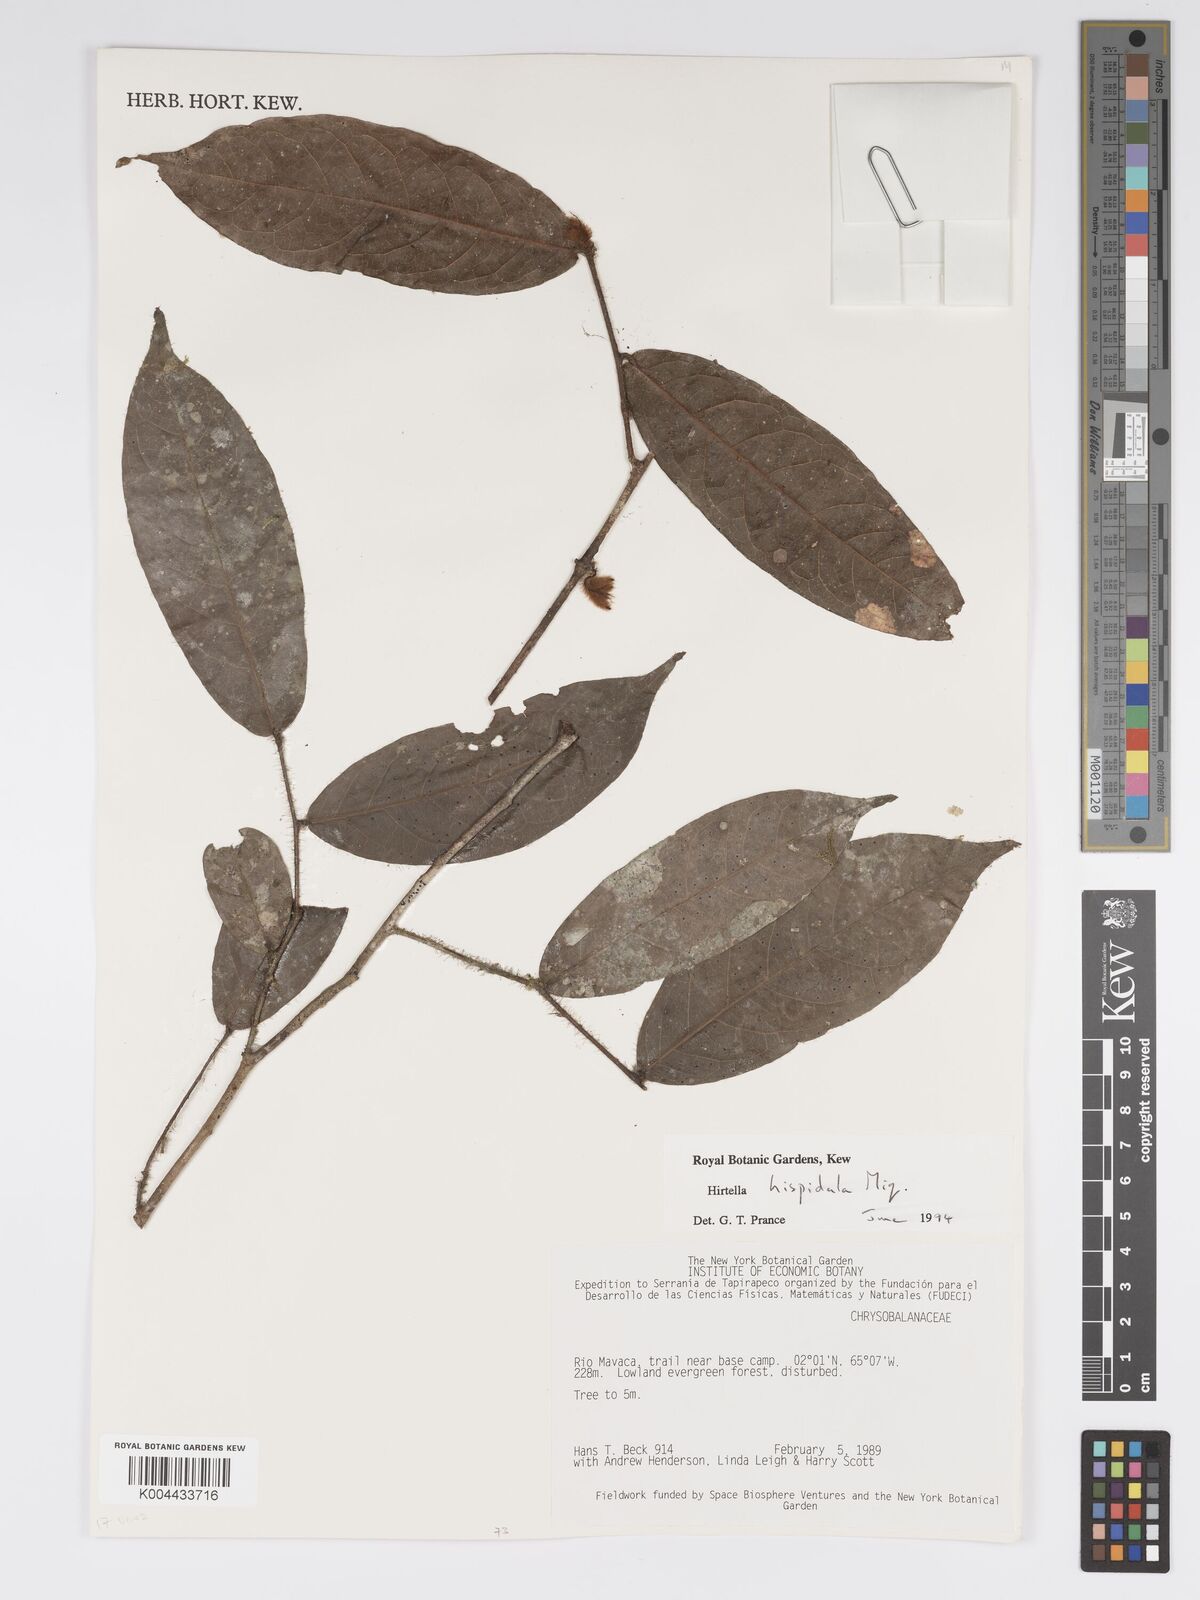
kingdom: Plantae
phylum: Tracheophyta
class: Magnoliopsida
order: Malpighiales
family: Chrysobalanaceae
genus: Hirtella
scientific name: Hirtella hispidula
